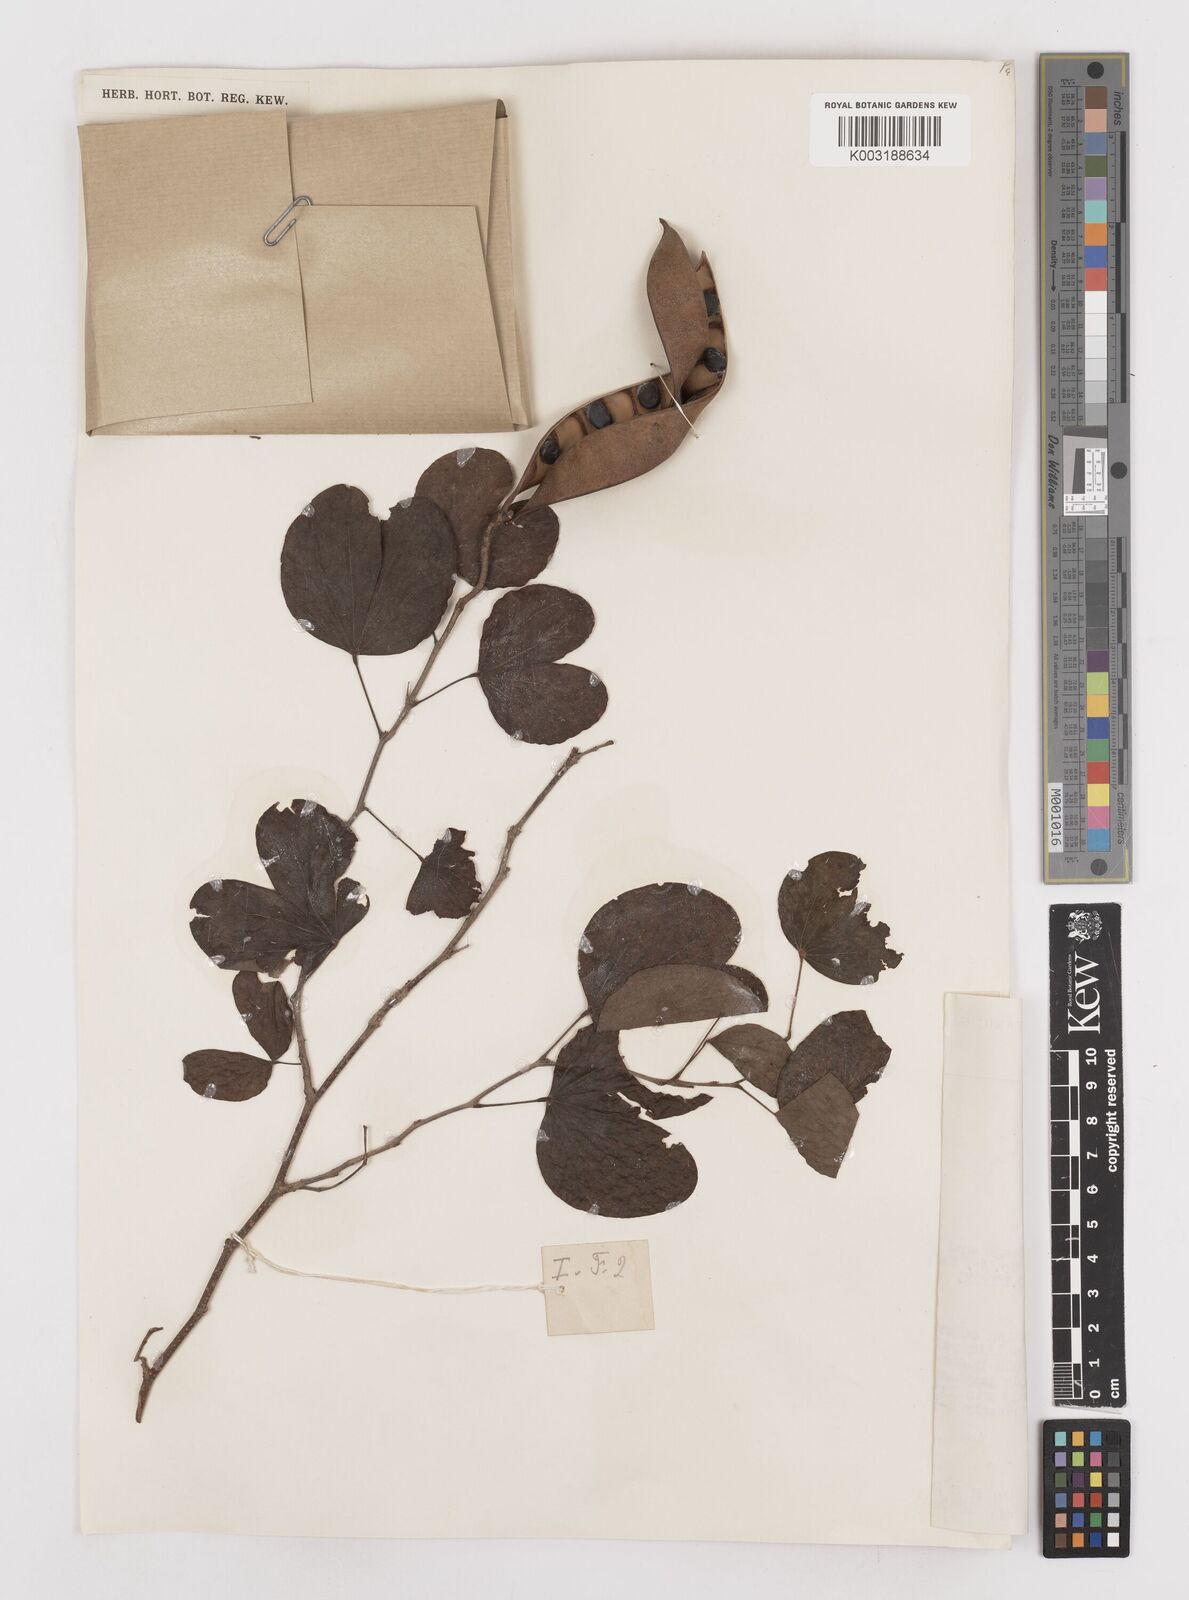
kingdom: Plantae
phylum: Tracheophyta
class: Magnoliopsida
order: Fabales
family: Fabaceae
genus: Bauhinia
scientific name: Bauhinia tomentosa
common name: Bell bauhinia
